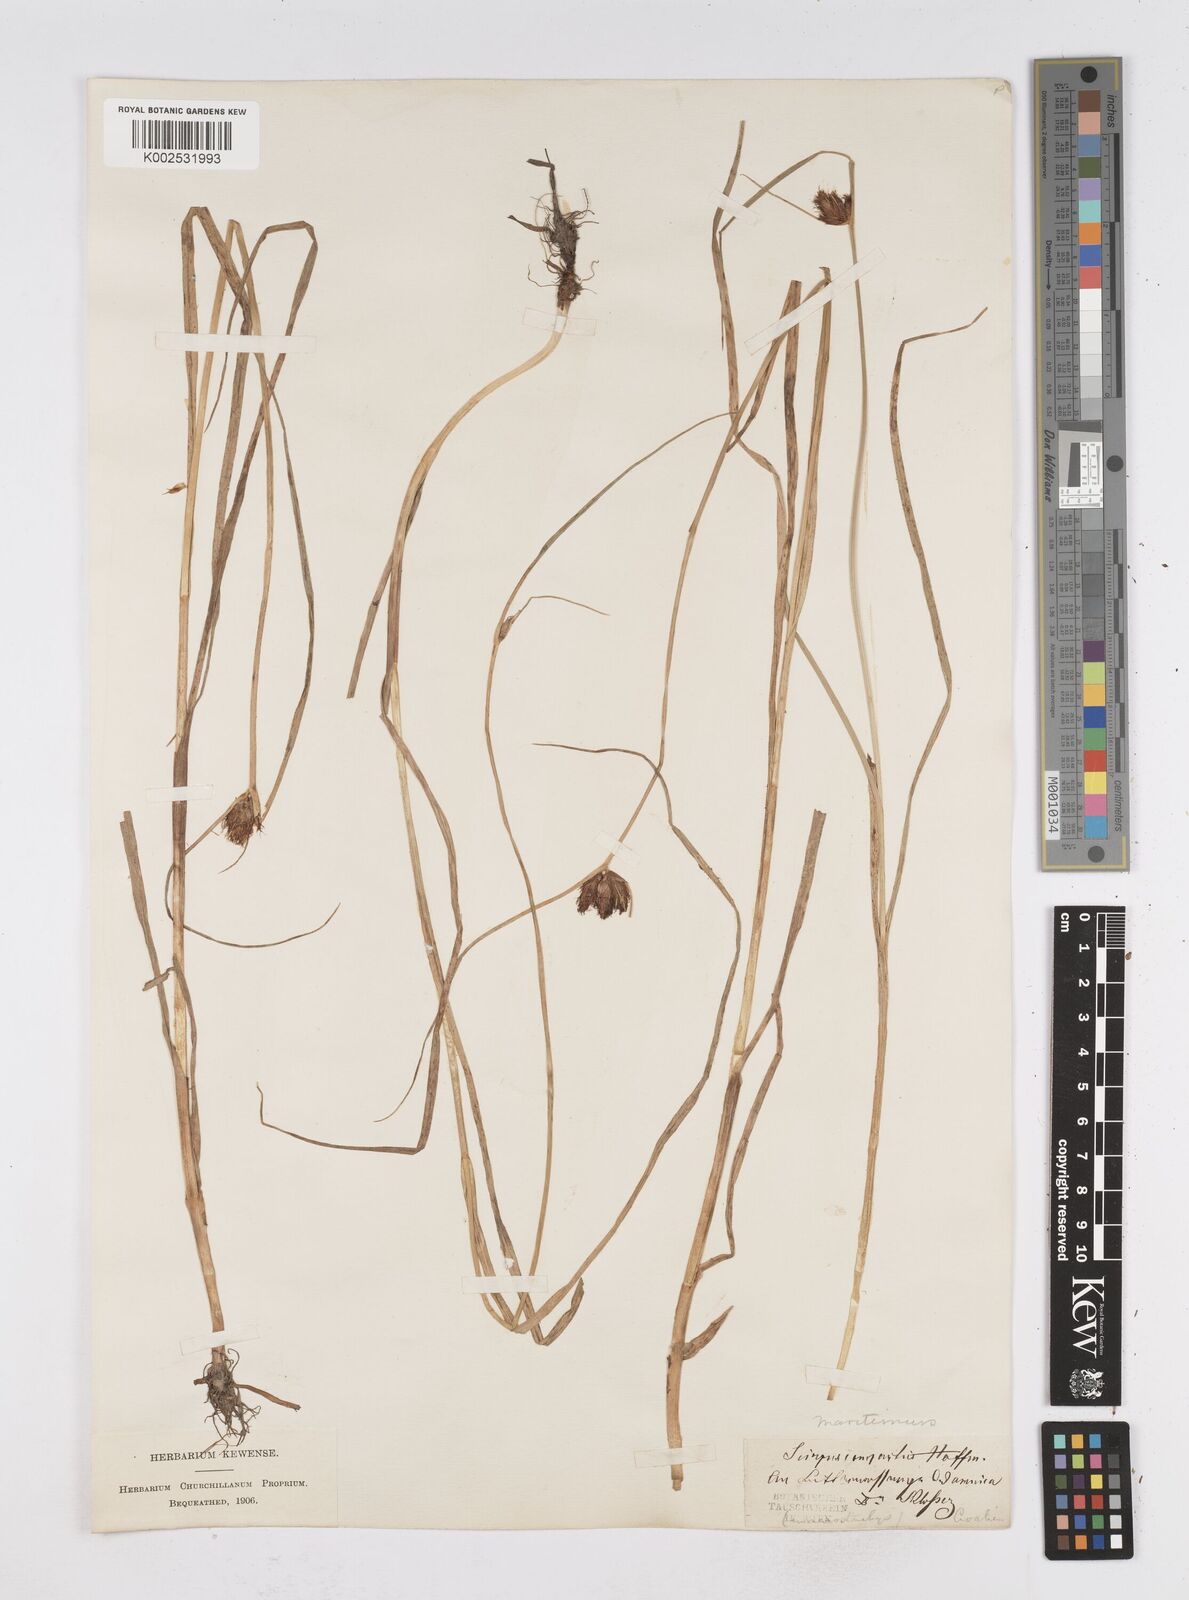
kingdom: Plantae
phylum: Tracheophyta
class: Liliopsida
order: Poales
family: Cyperaceae
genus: Bolboschoenus
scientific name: Bolboschoenus maritimus
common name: Sea club-rush
